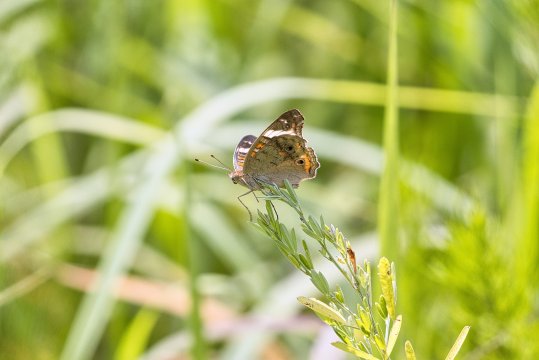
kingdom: Animalia
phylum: Arthropoda
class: Insecta
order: Lepidoptera
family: Nymphalidae
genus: Junonia
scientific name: Junonia coenia
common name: Common Buckeye
